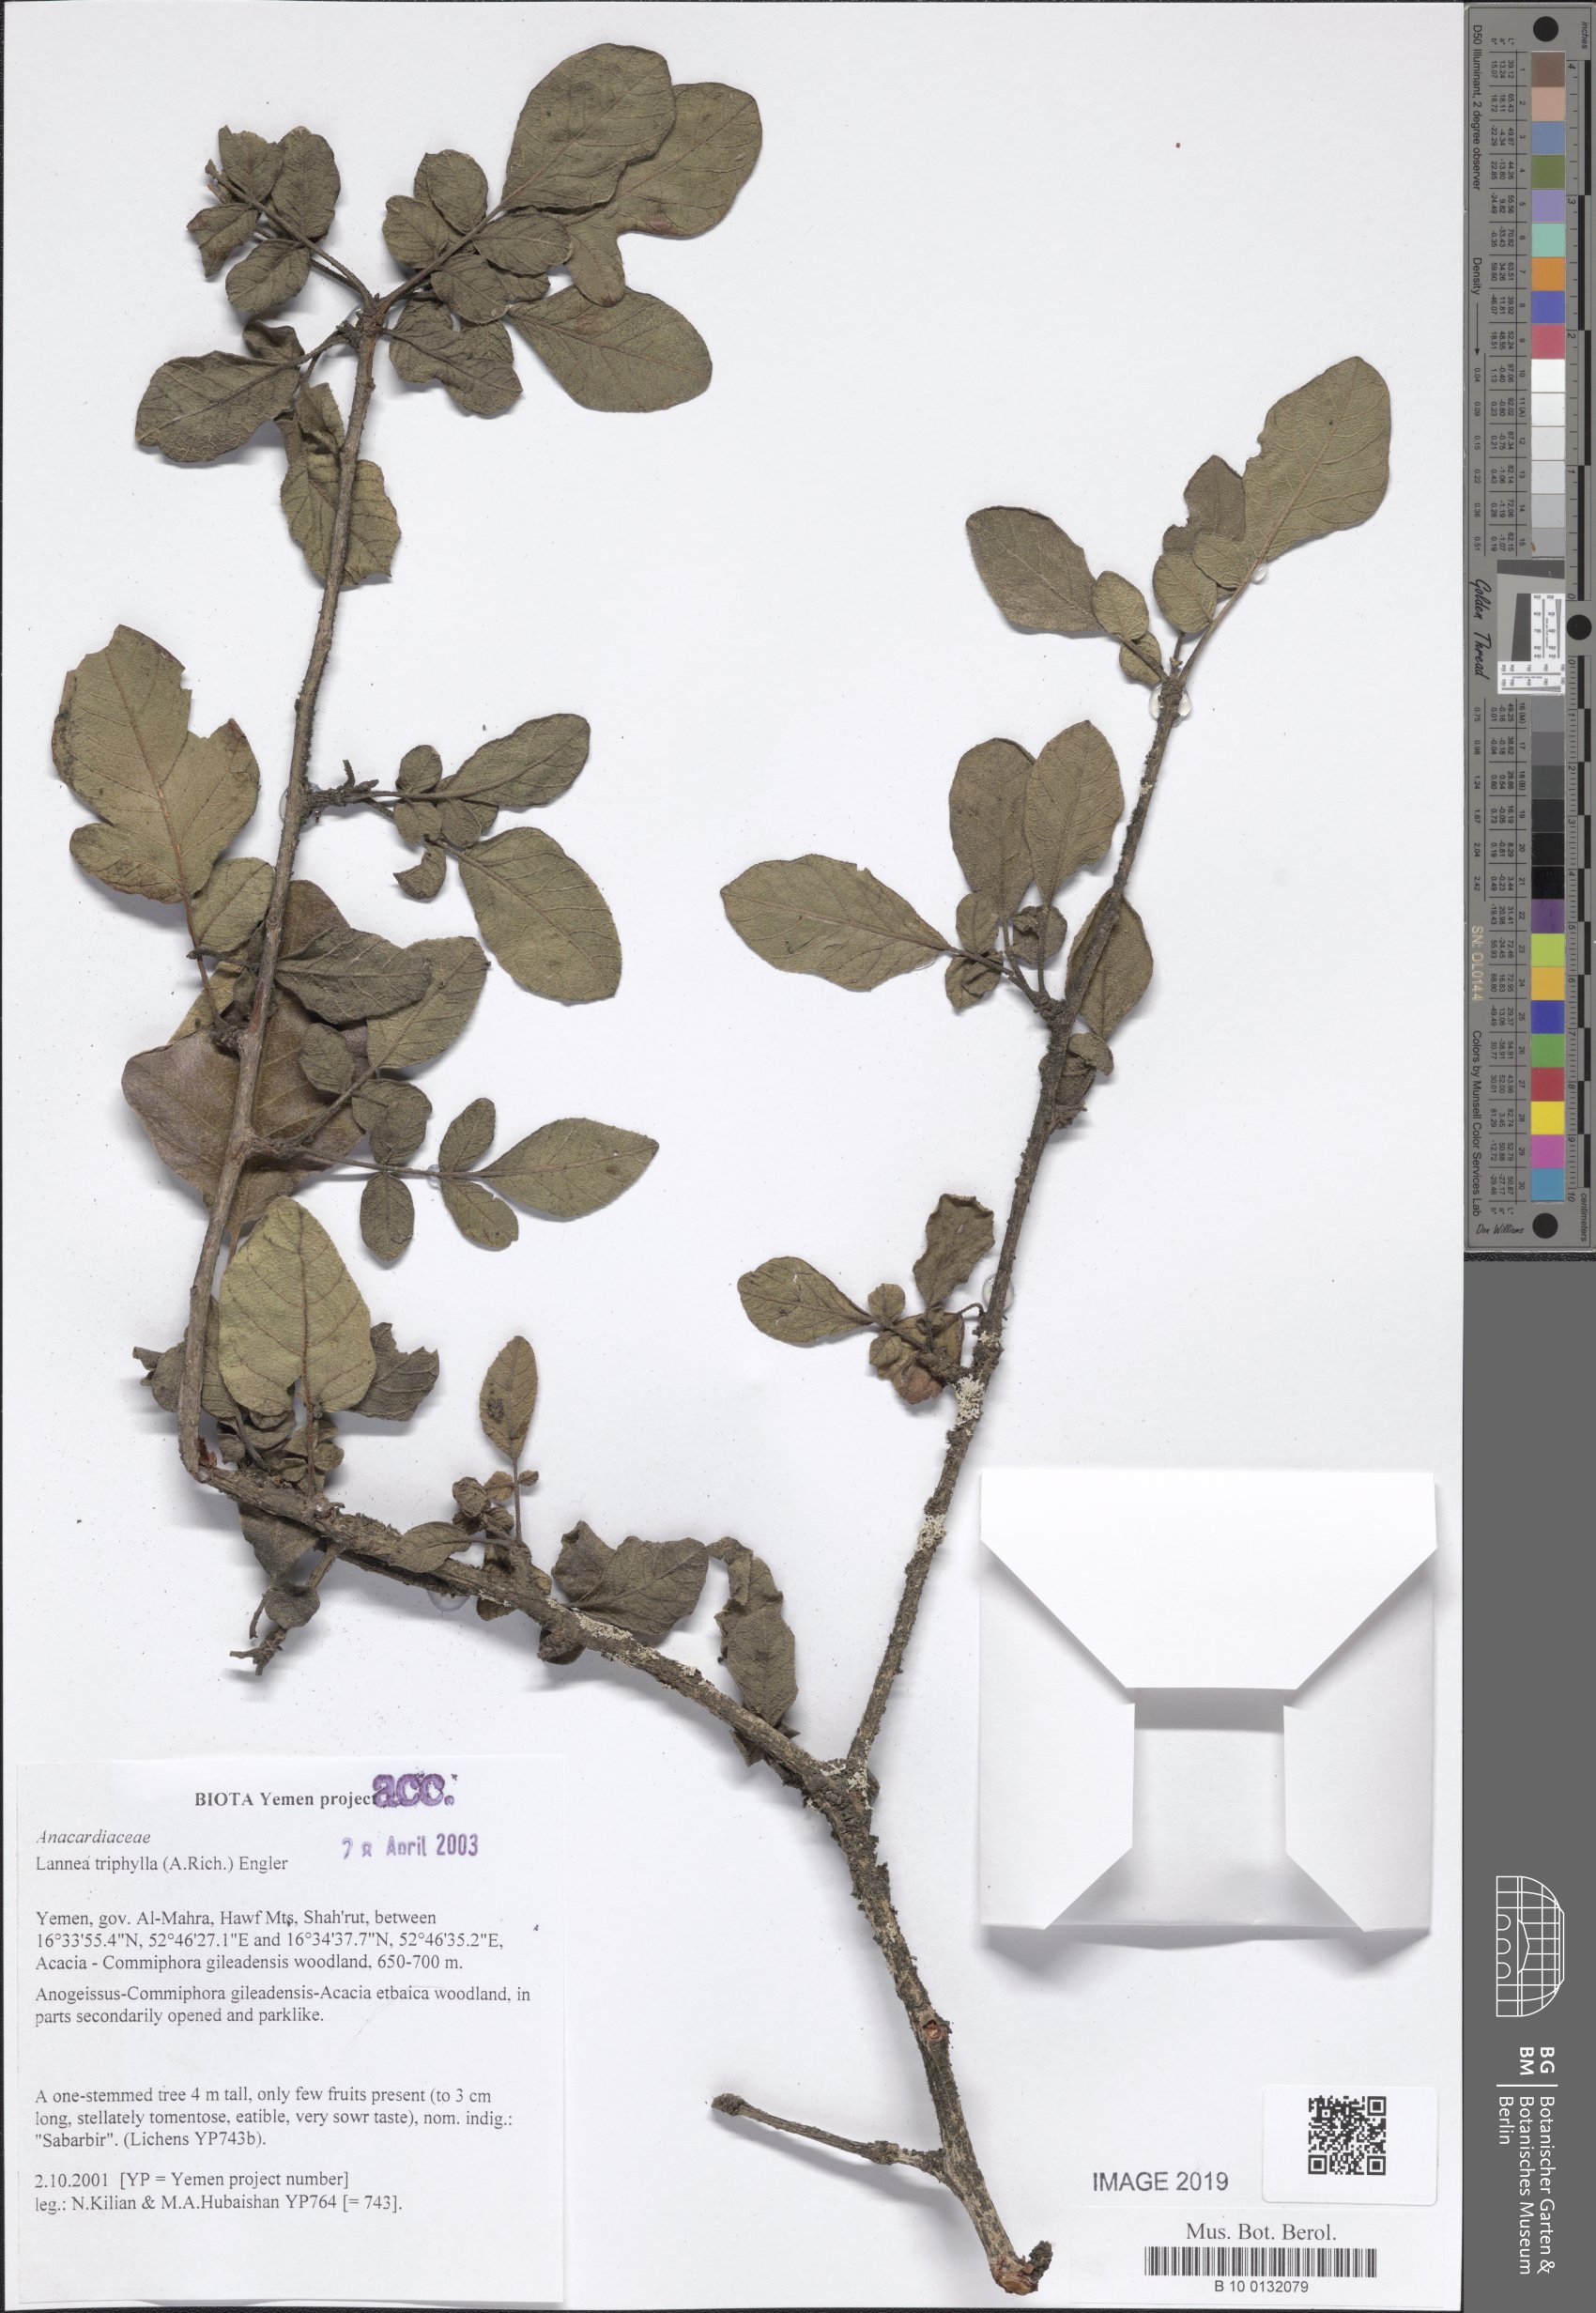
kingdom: Plantae
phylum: Tracheophyta
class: Magnoliopsida
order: Sapindales
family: Anacardiaceae
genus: Lannea
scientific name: Lannea triphylla
